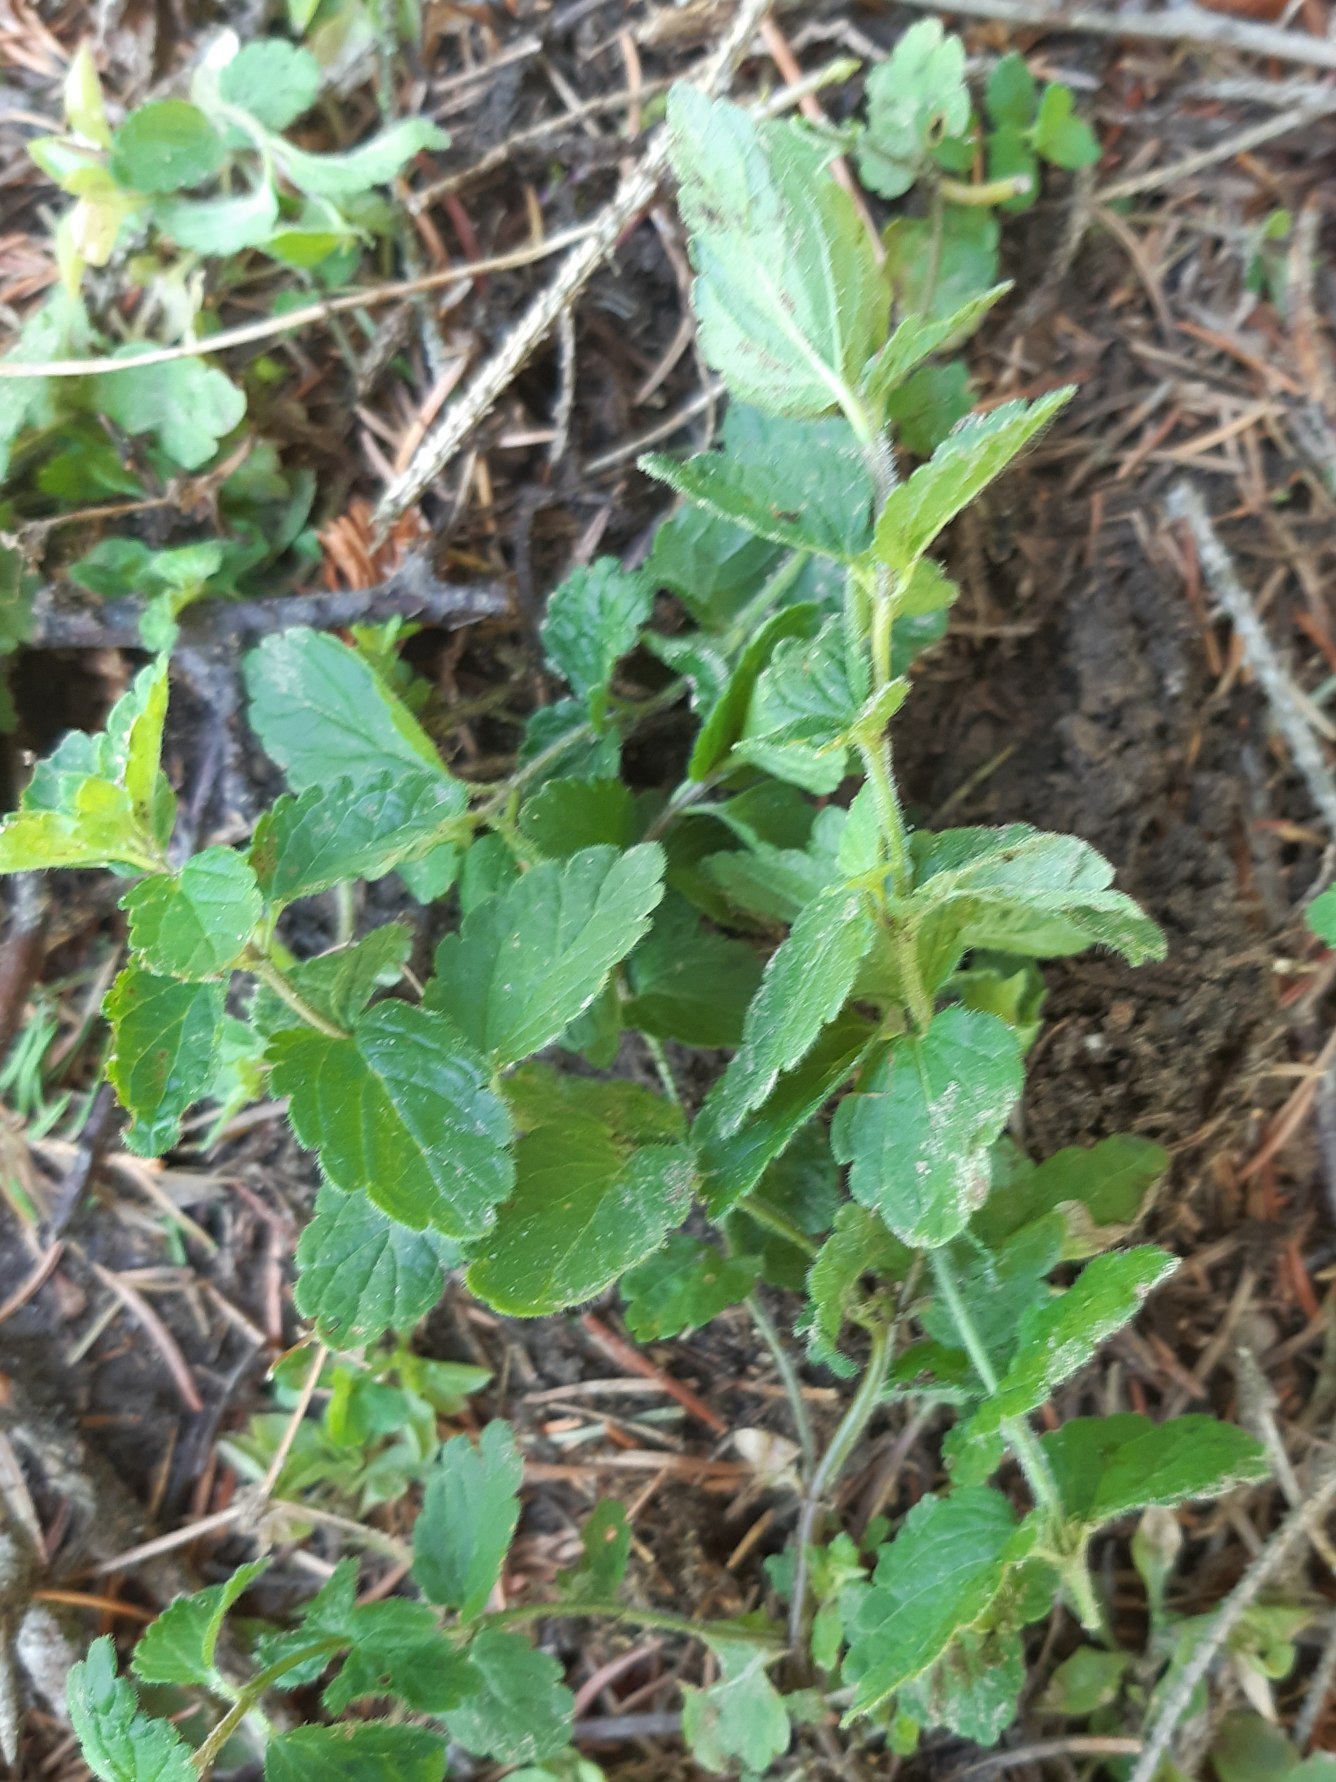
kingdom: Plantae
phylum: Tracheophyta
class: Magnoliopsida
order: Lamiales
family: Plantaginaceae
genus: Veronica
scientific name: Veronica chamaedrys
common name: Tveskægget ærenpris
